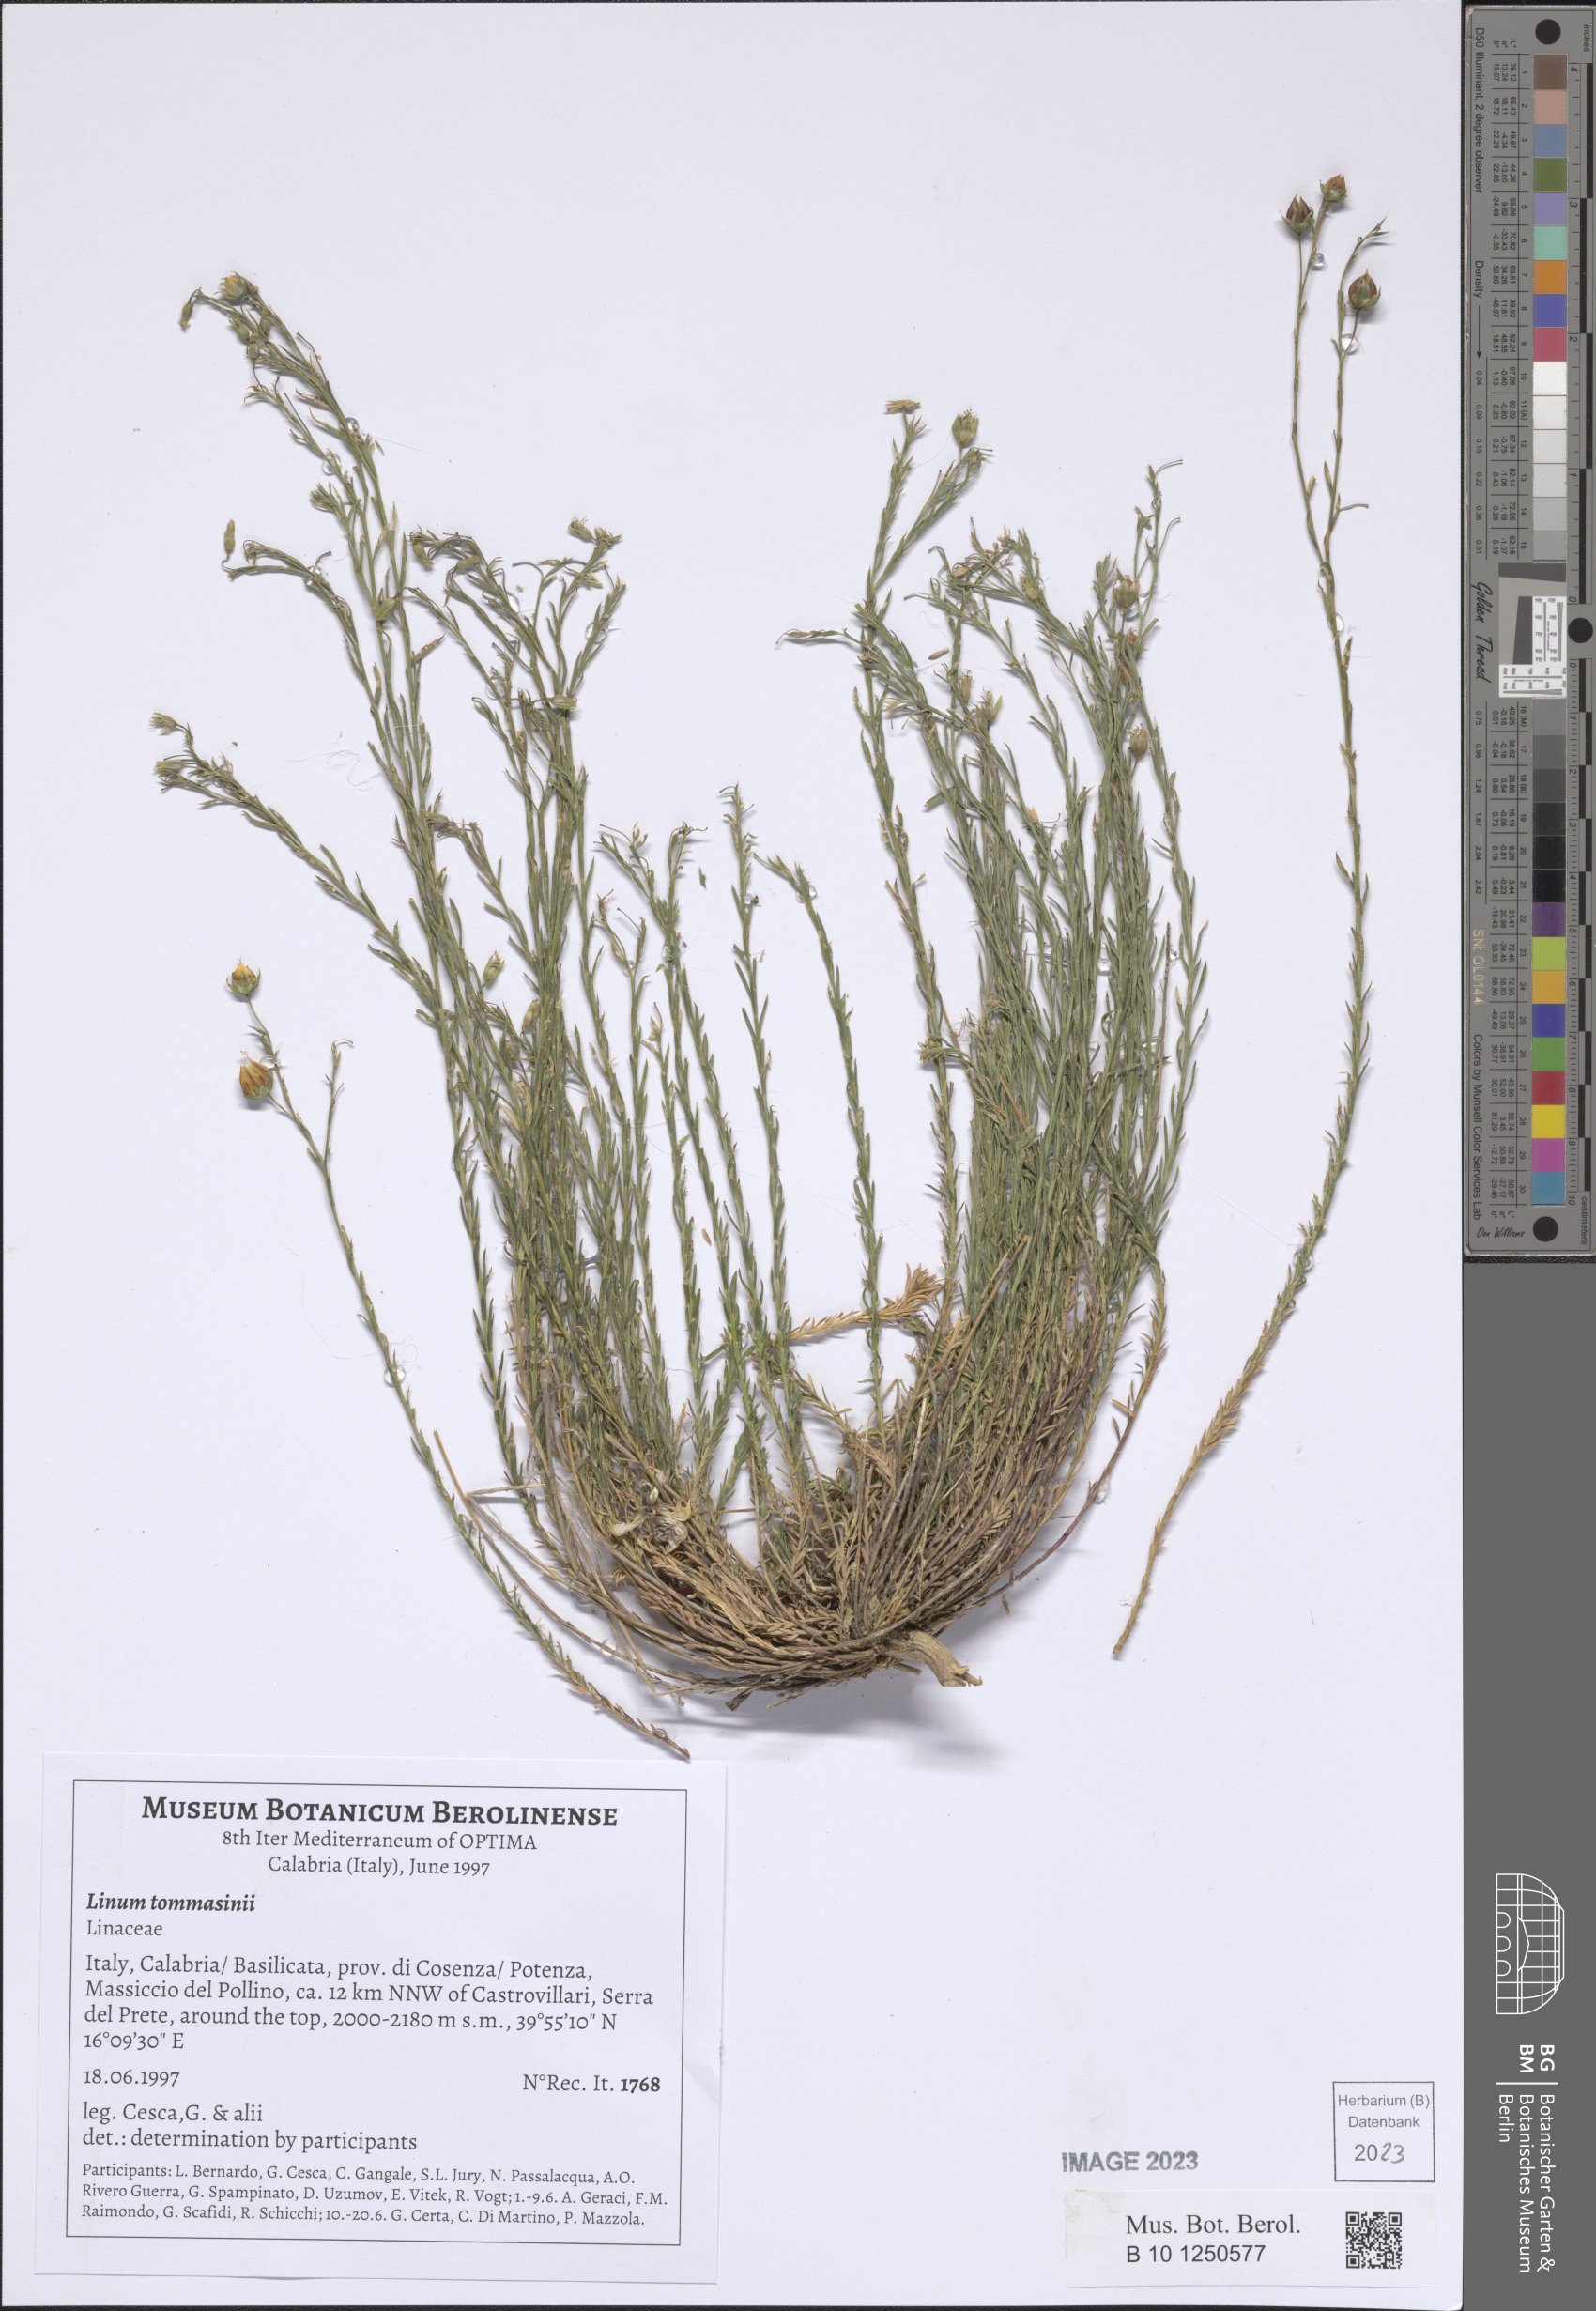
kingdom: Plantae
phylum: Tracheophyta
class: Magnoliopsida
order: Malpighiales
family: Linaceae
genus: Linum
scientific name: Linum austriacum
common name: Austrian flax
